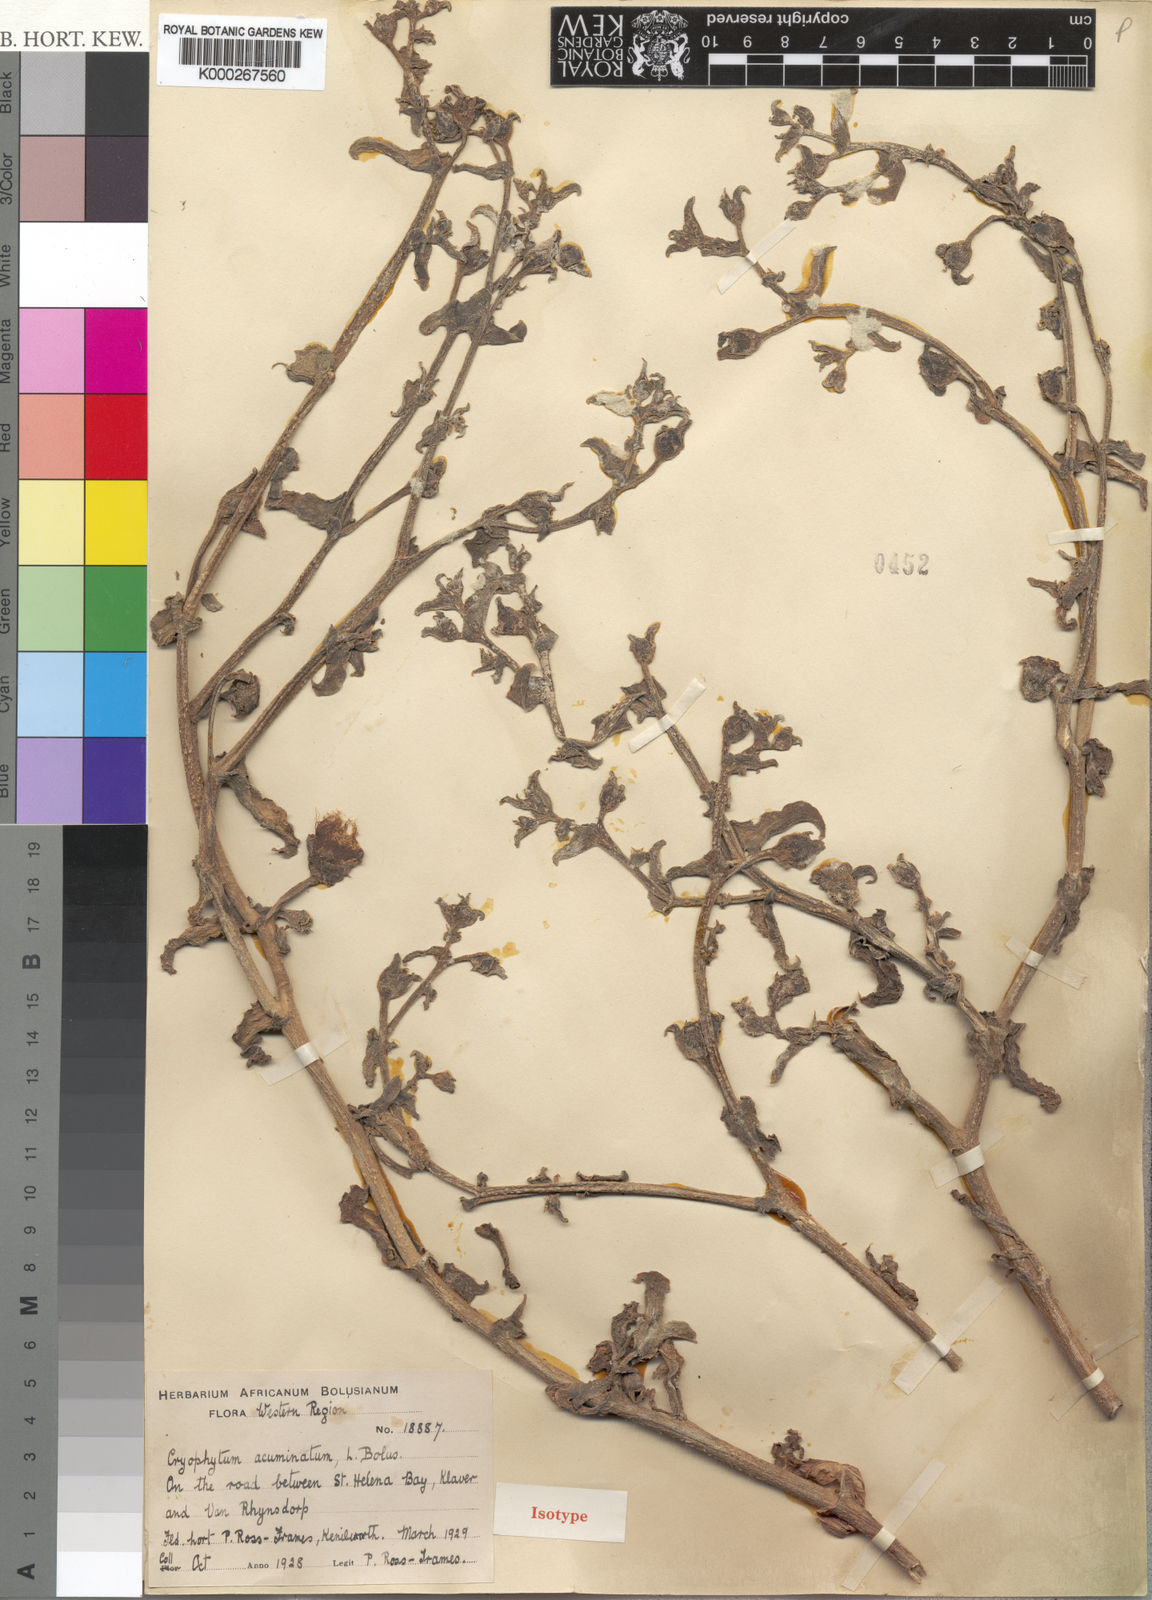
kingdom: Plantae
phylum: Tracheophyta
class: Magnoliopsida
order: Caryophyllales
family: Aizoaceae
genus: Mesembryanthemum
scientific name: Mesembryanthemum guerichianum
